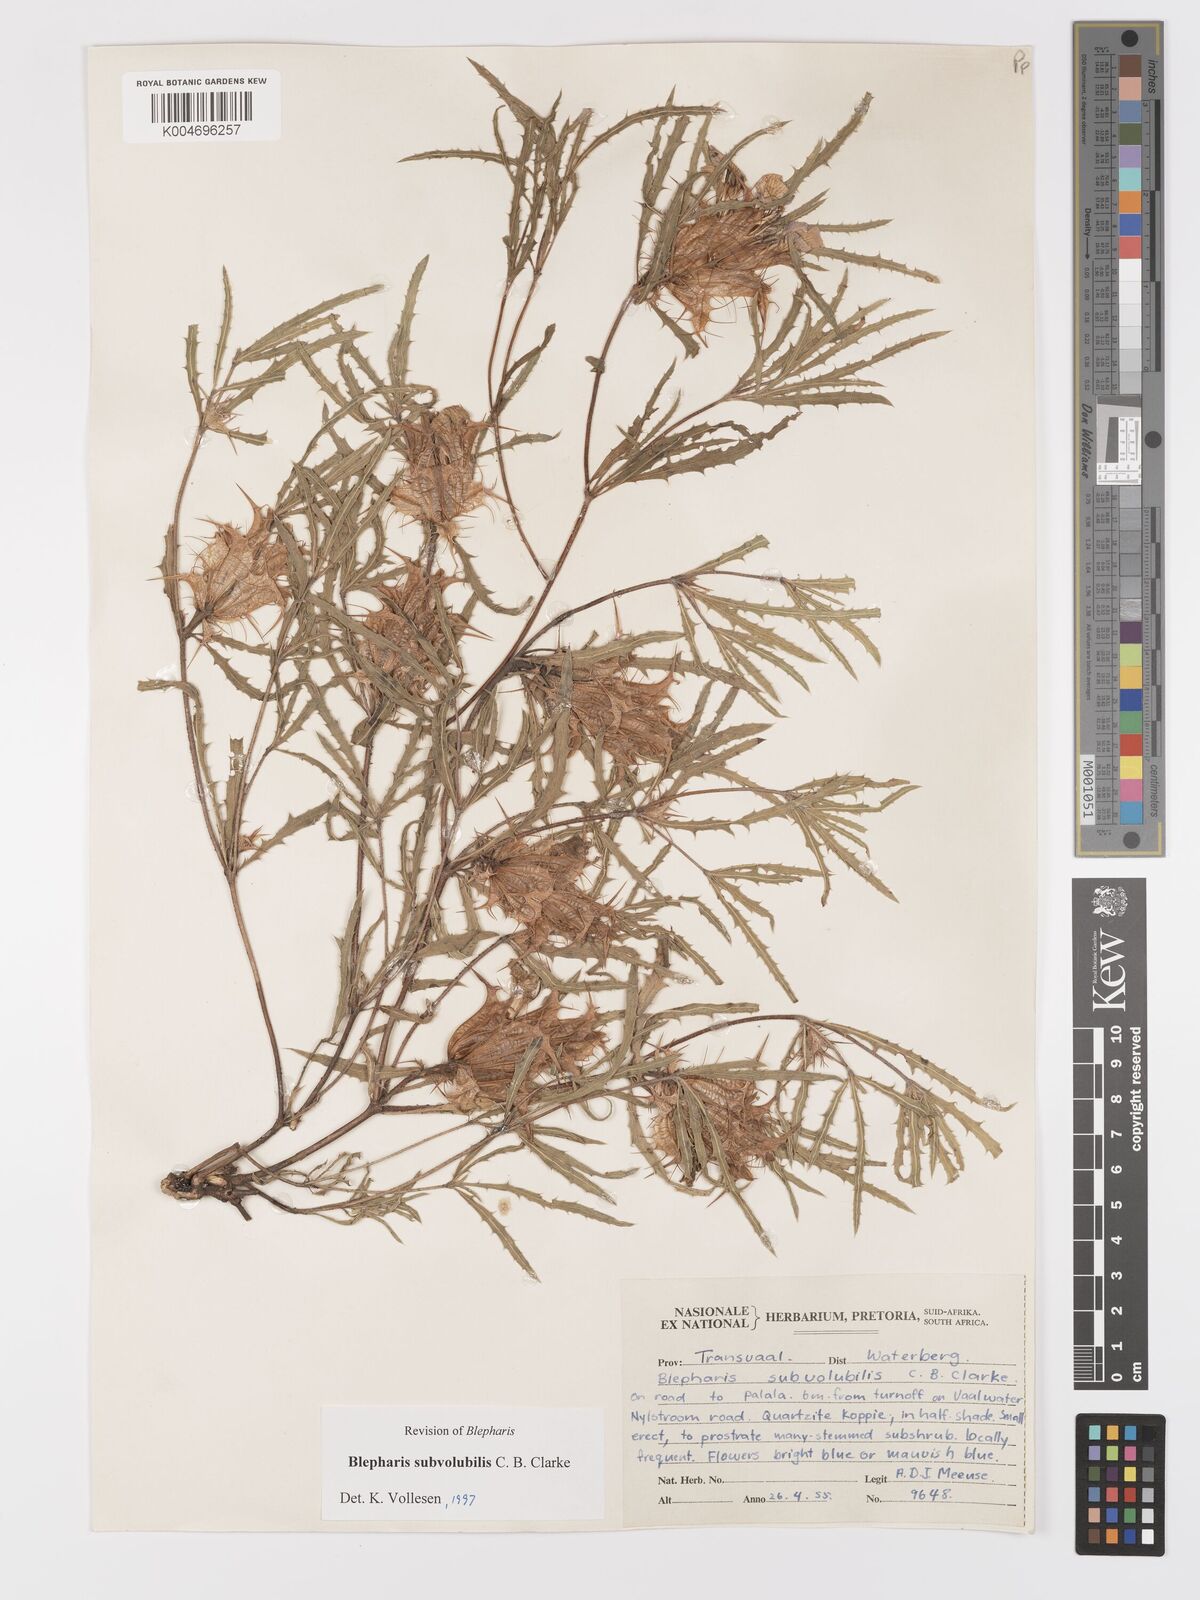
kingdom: Plantae
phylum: Tracheophyta
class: Magnoliopsida
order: Lamiales
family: Acanthaceae
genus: Blepharis
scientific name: Blepharis subvolubilis
